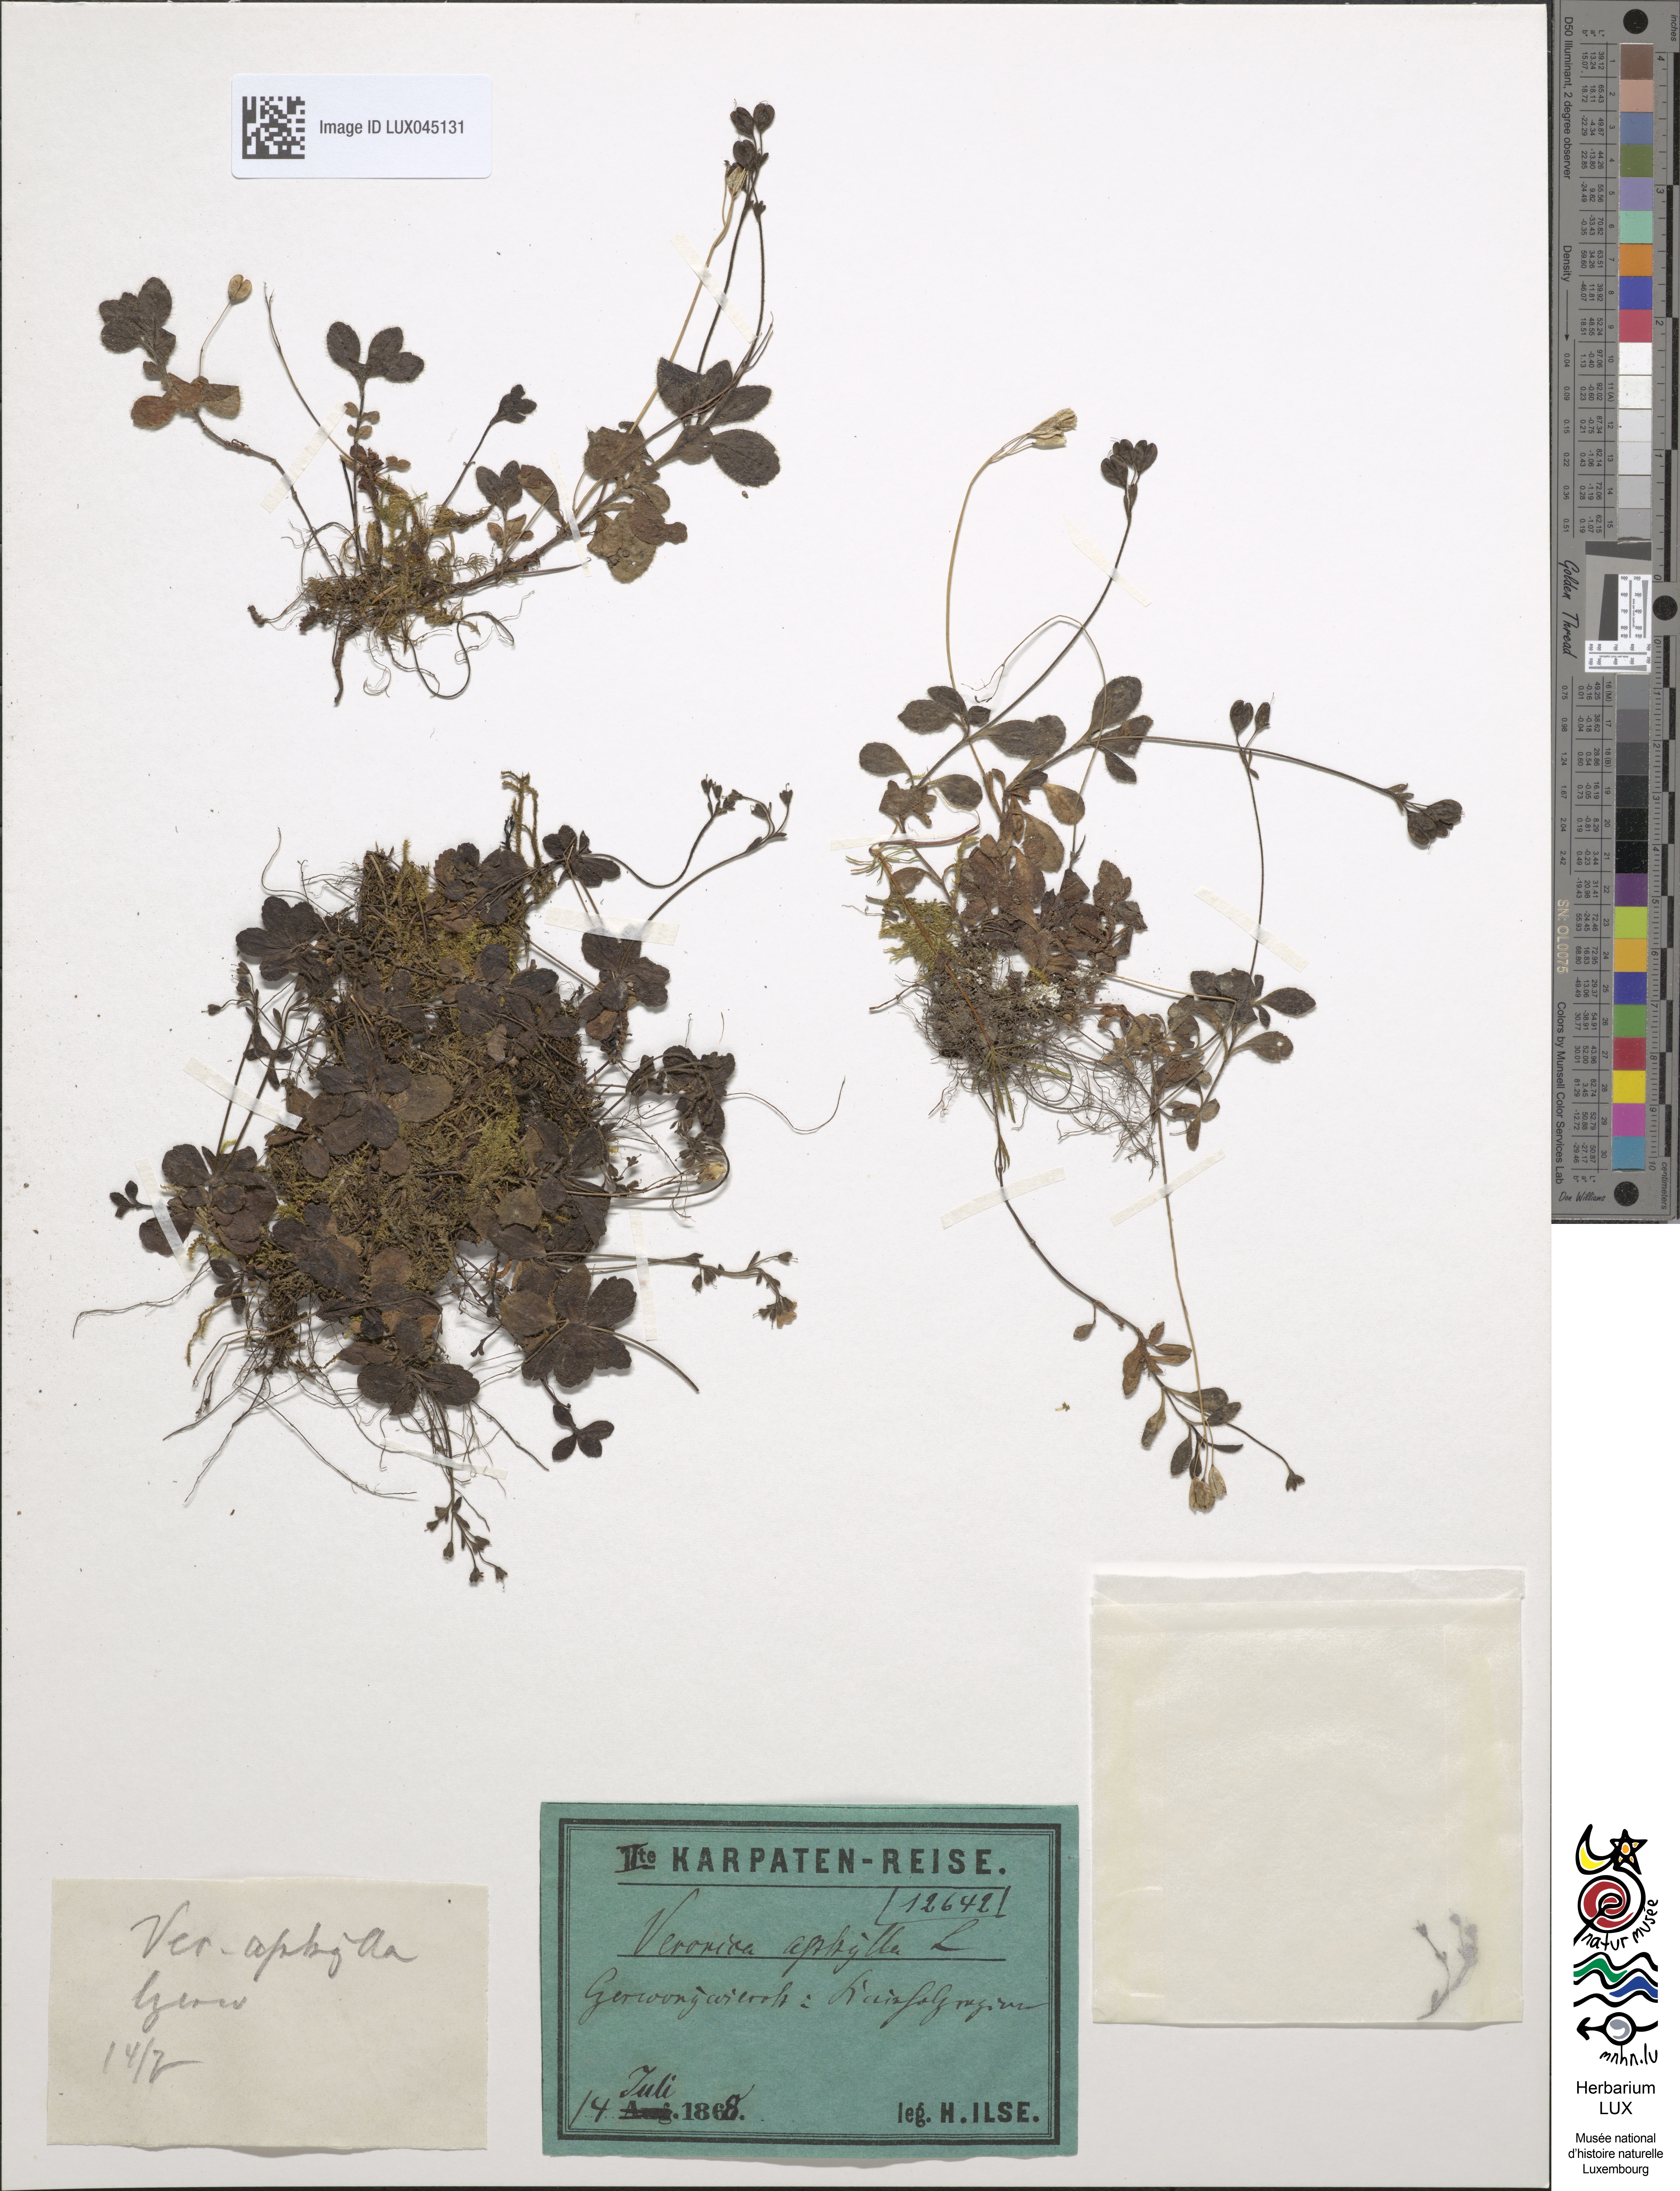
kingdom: Plantae
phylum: Tracheophyta
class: Magnoliopsida
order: Lamiales
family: Plantaginaceae
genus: Veronica
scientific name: Veronica aphylla
